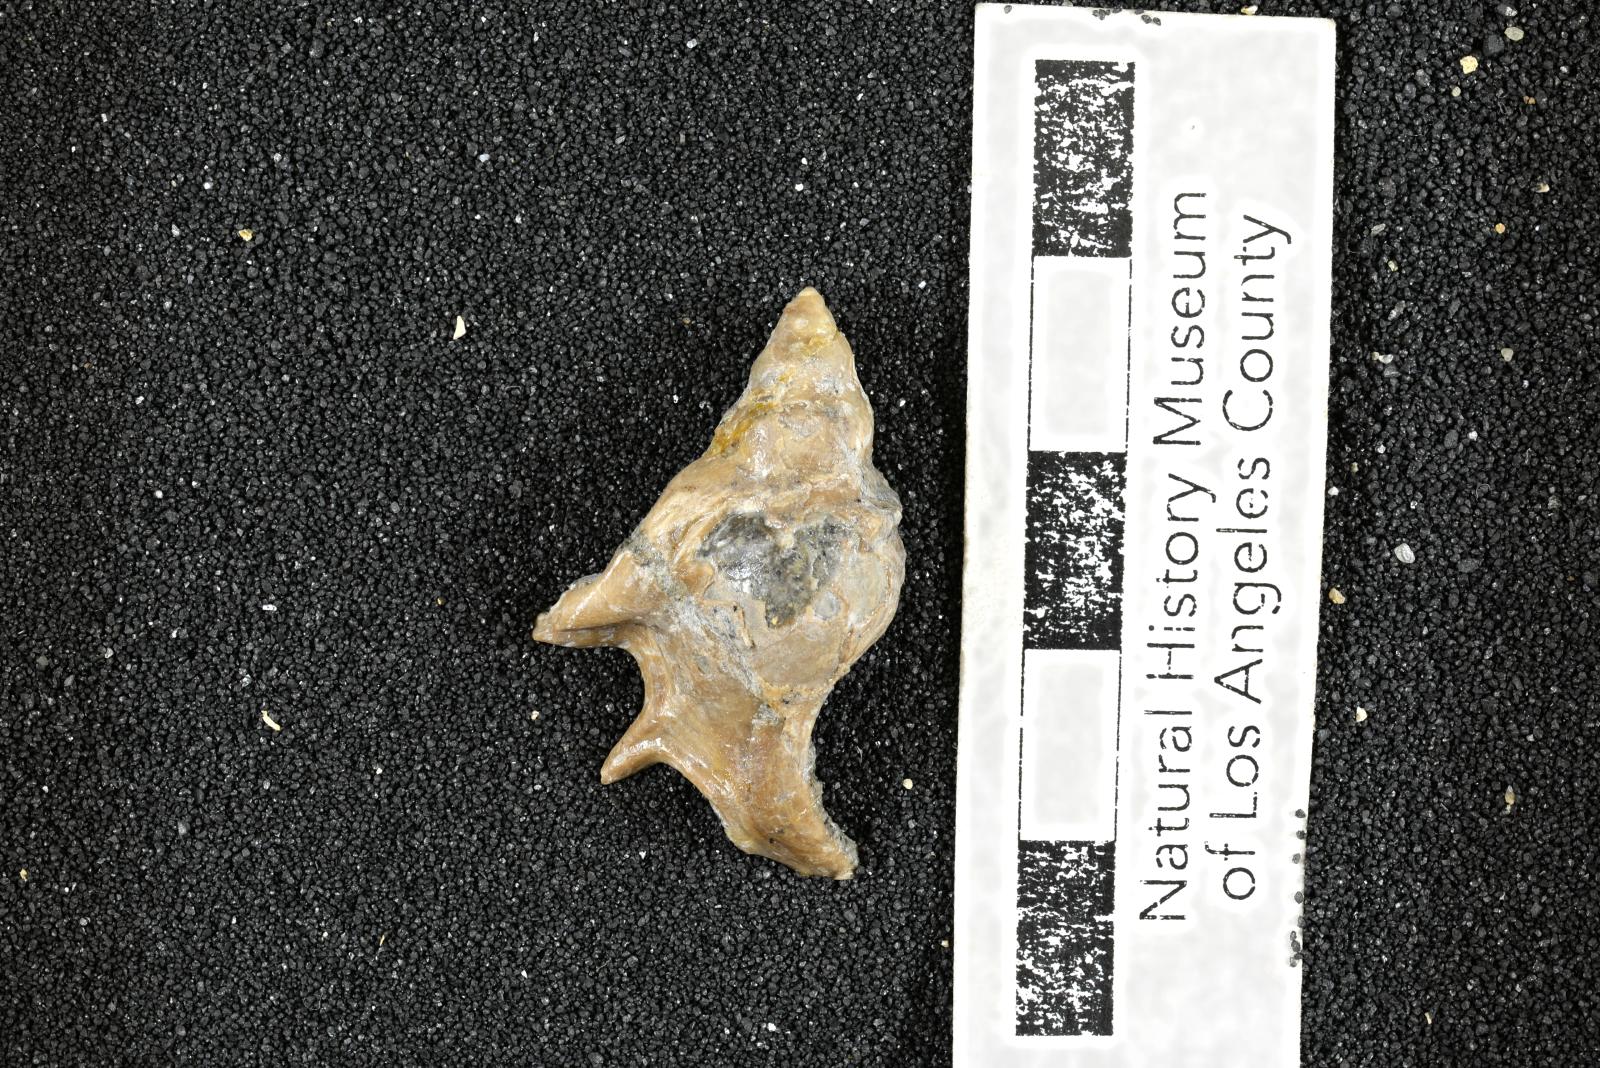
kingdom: Animalia
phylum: Mollusca
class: Gastropoda
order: Littorinimorpha
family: Aporrhaidae
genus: Lispodesthes
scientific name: Lispodesthes Pugnellus rotundus
